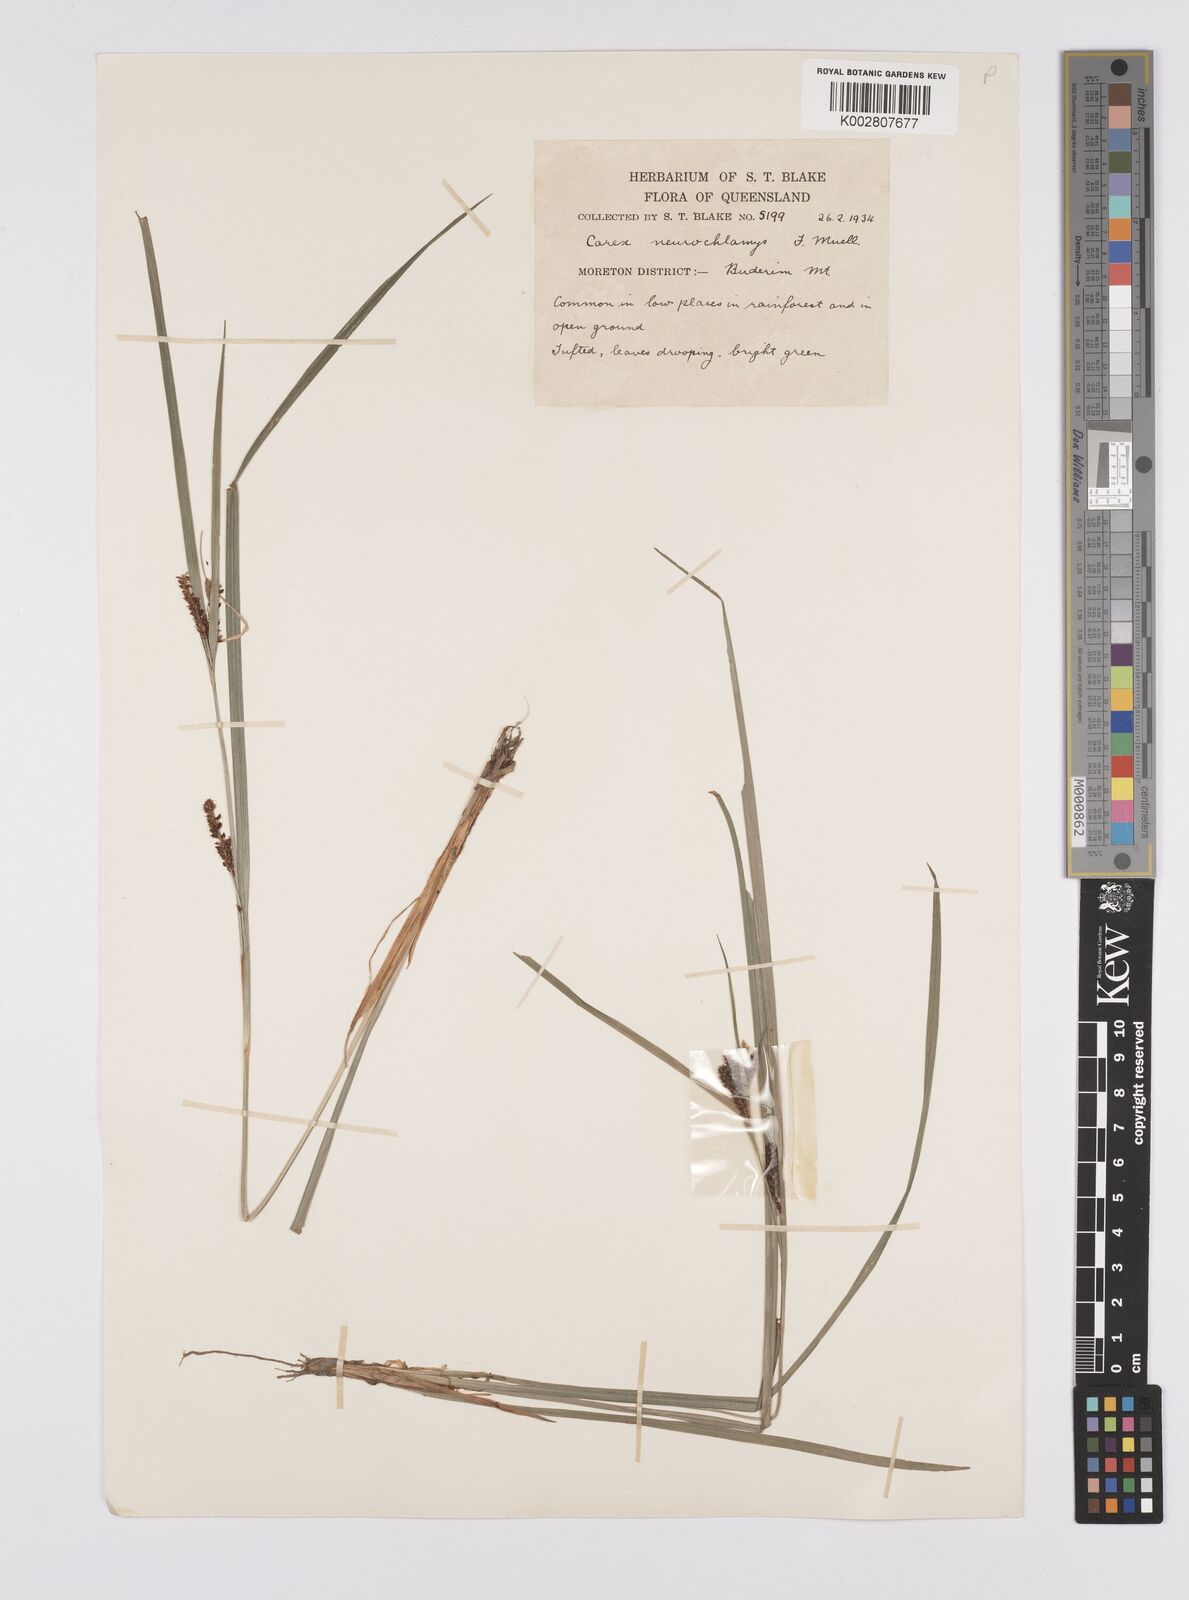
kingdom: Plantae
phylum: Tracheophyta
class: Liliopsida
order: Poales
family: Cyperaceae
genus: Carex
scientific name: Carex maculata
